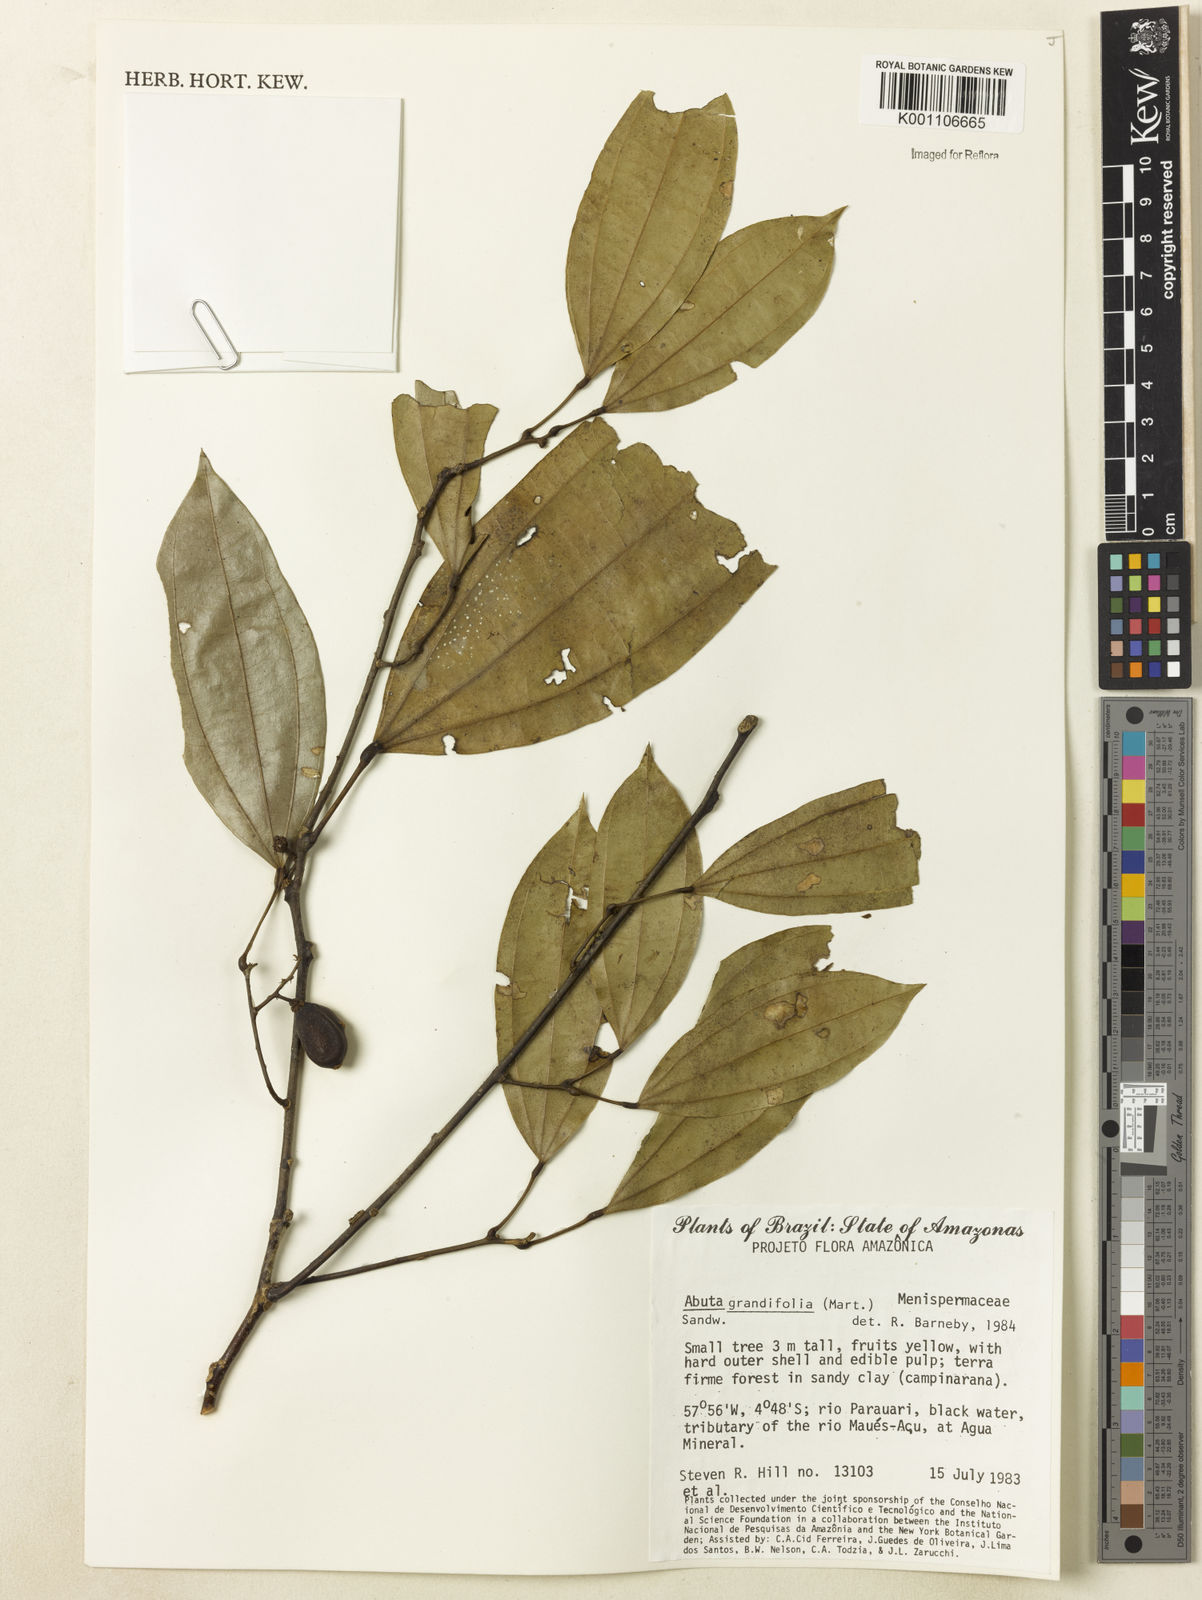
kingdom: Plantae
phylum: Tracheophyta
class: Magnoliopsida
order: Ranunculales
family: Menispermaceae
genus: Abuta
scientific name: Abuta grandifolia
